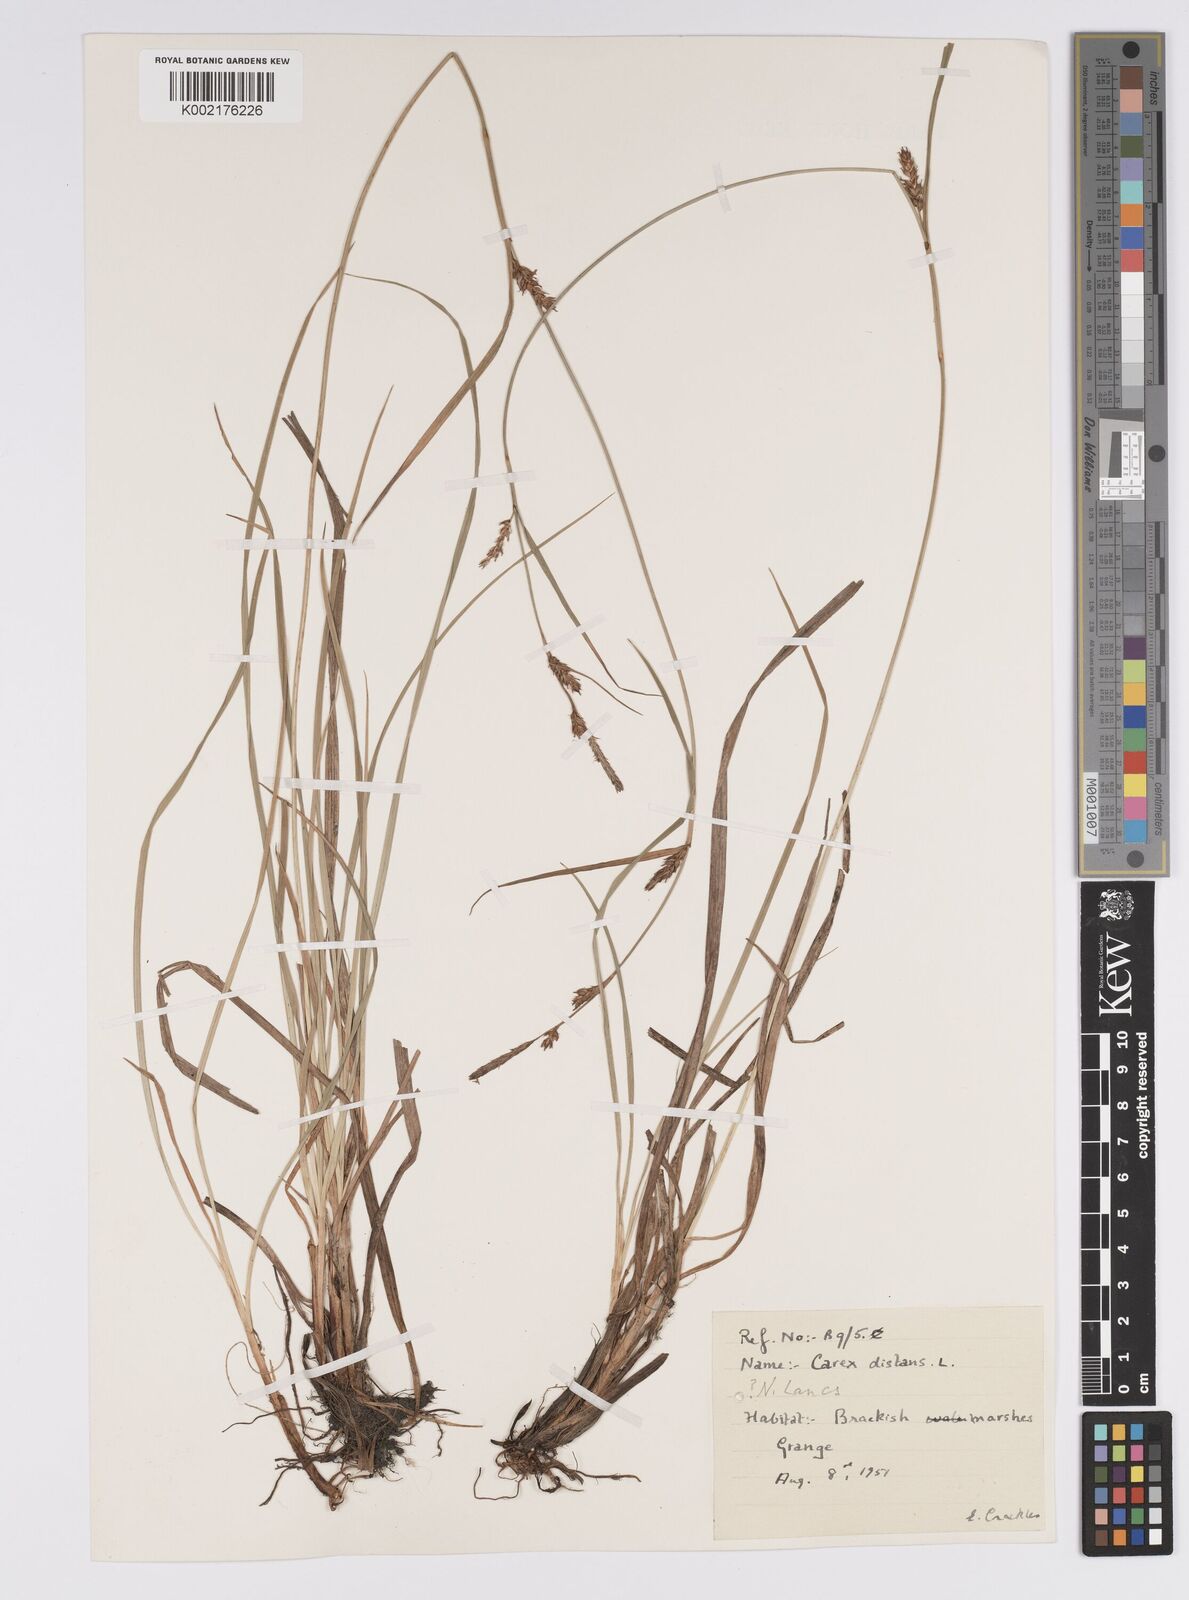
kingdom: Plantae
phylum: Tracheophyta
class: Liliopsida
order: Poales
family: Cyperaceae
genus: Carex
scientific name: Carex distans
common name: Distant sedge
